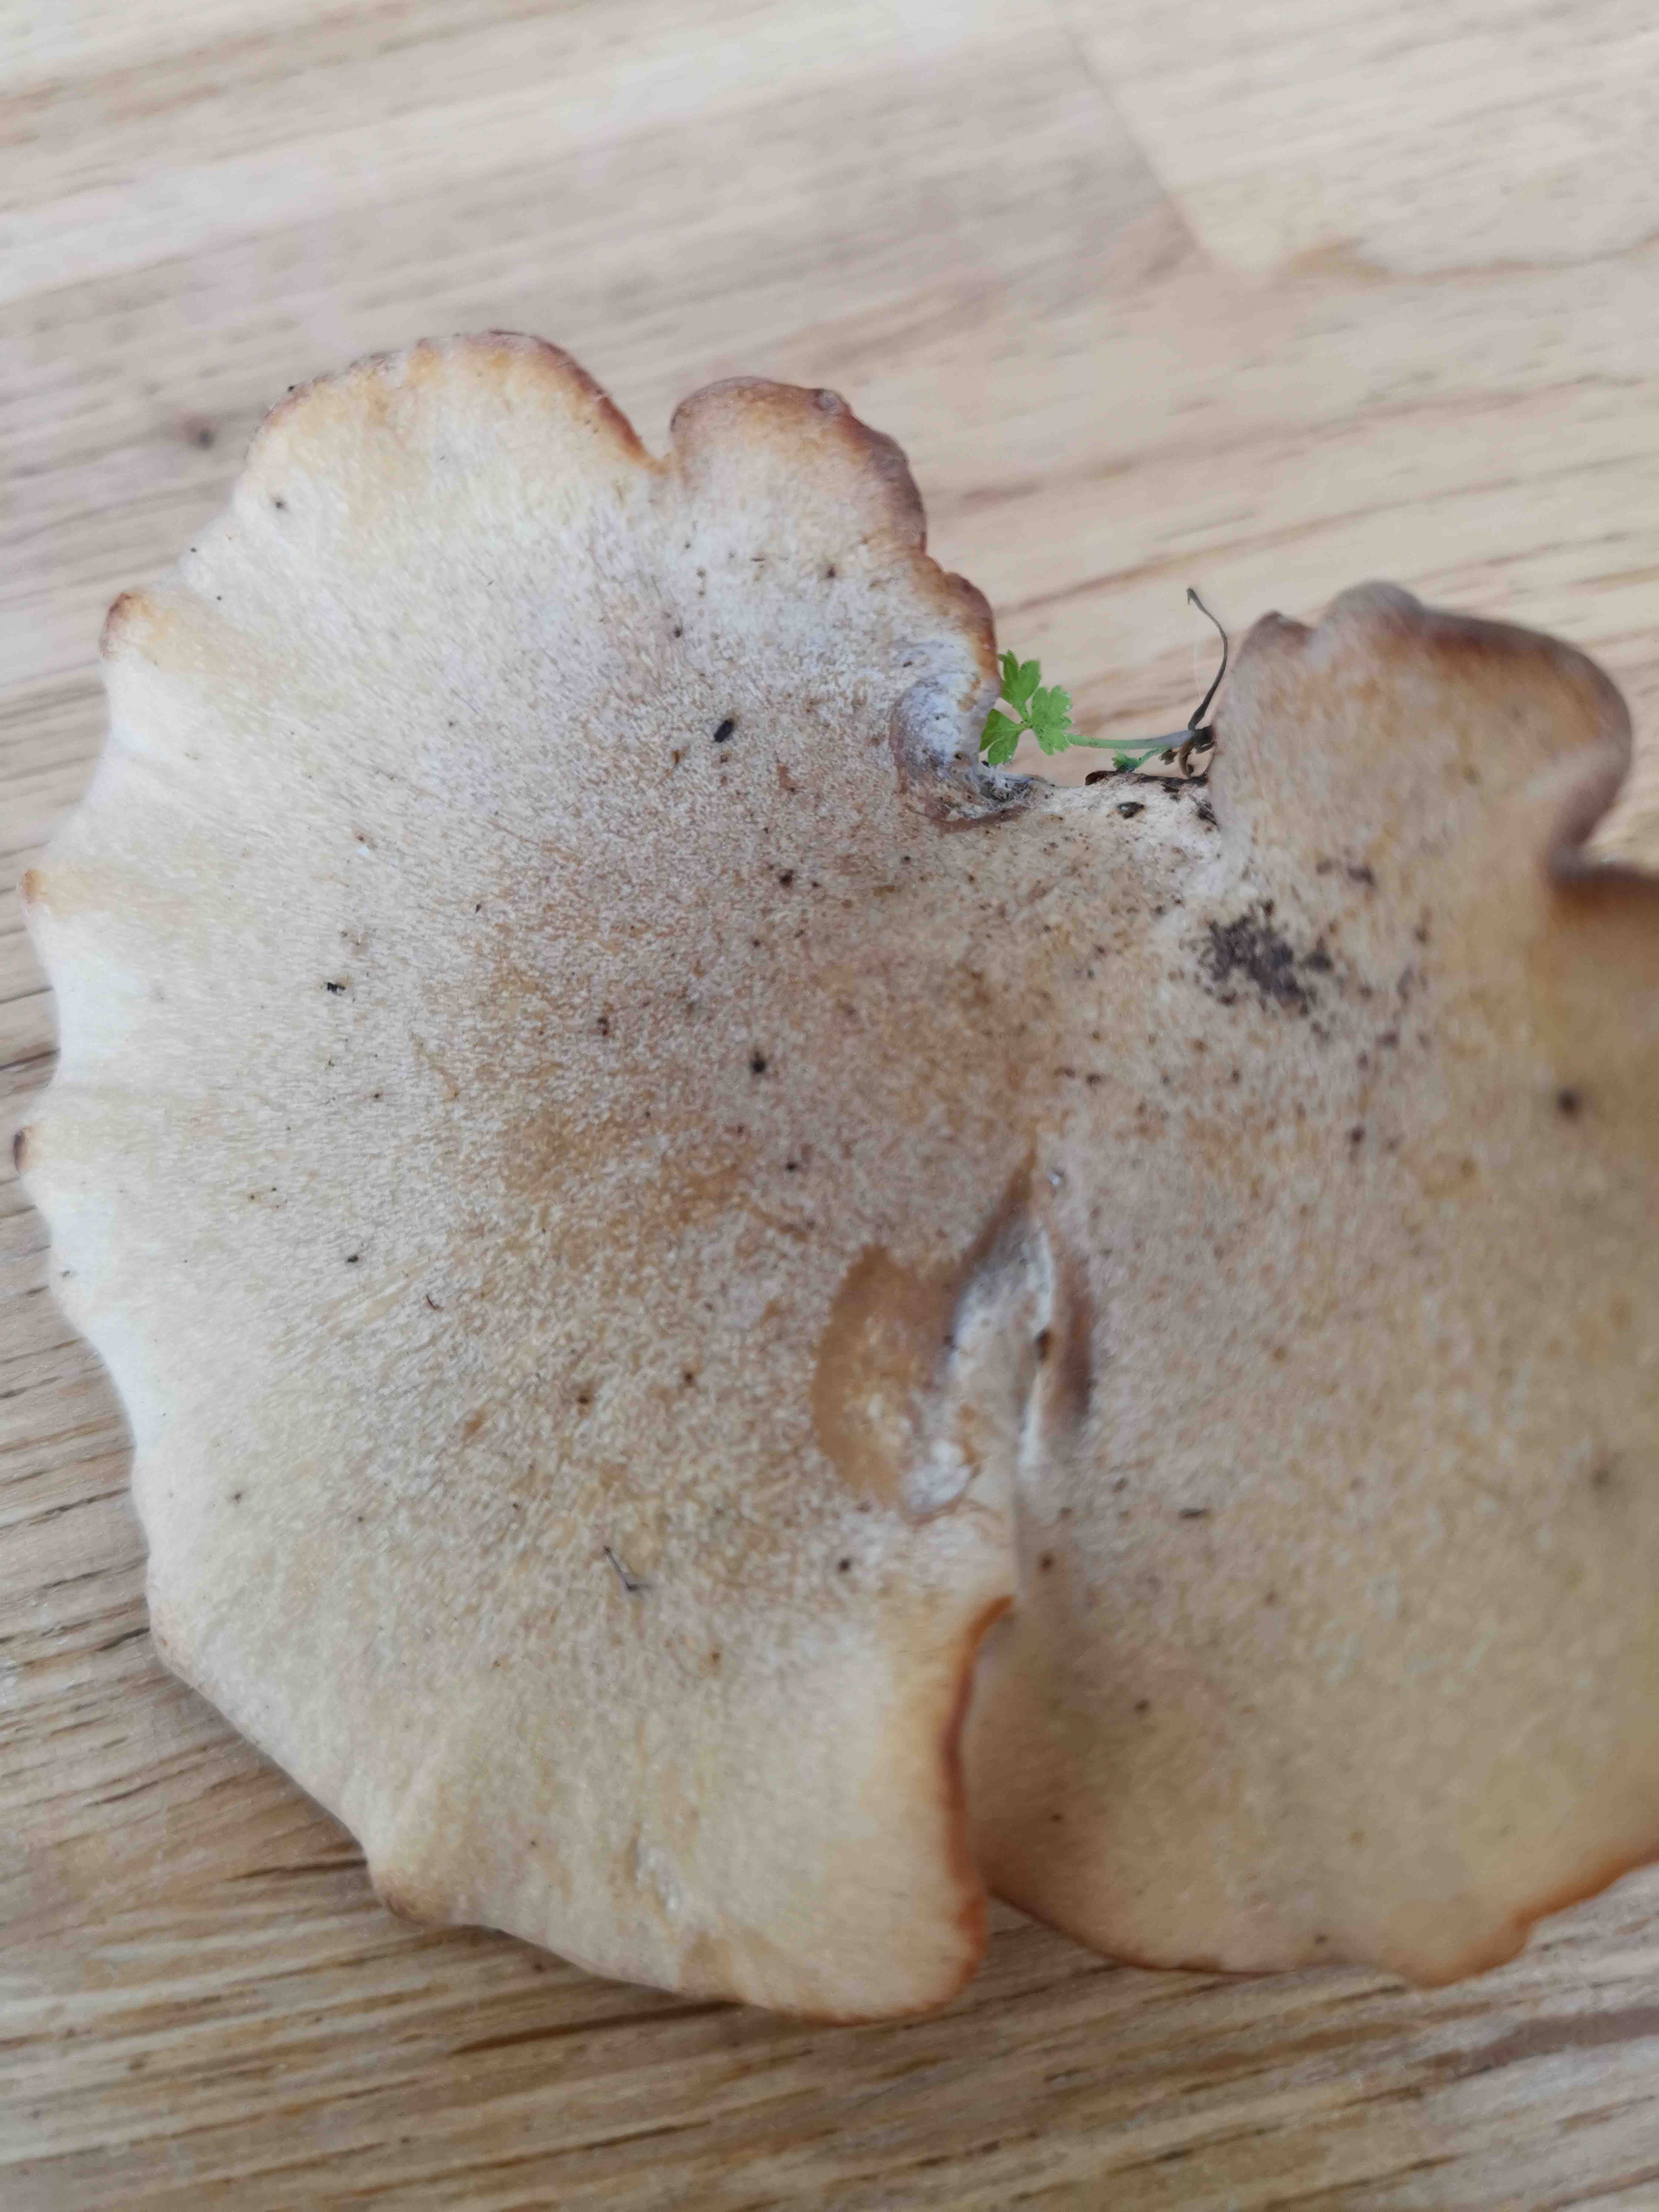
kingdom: Fungi
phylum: Basidiomycota
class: Agaricomycetes
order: Polyporales
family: Polyporaceae
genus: Cerioporus
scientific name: Cerioporus varius
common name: foranderlig stilkporesvamp
